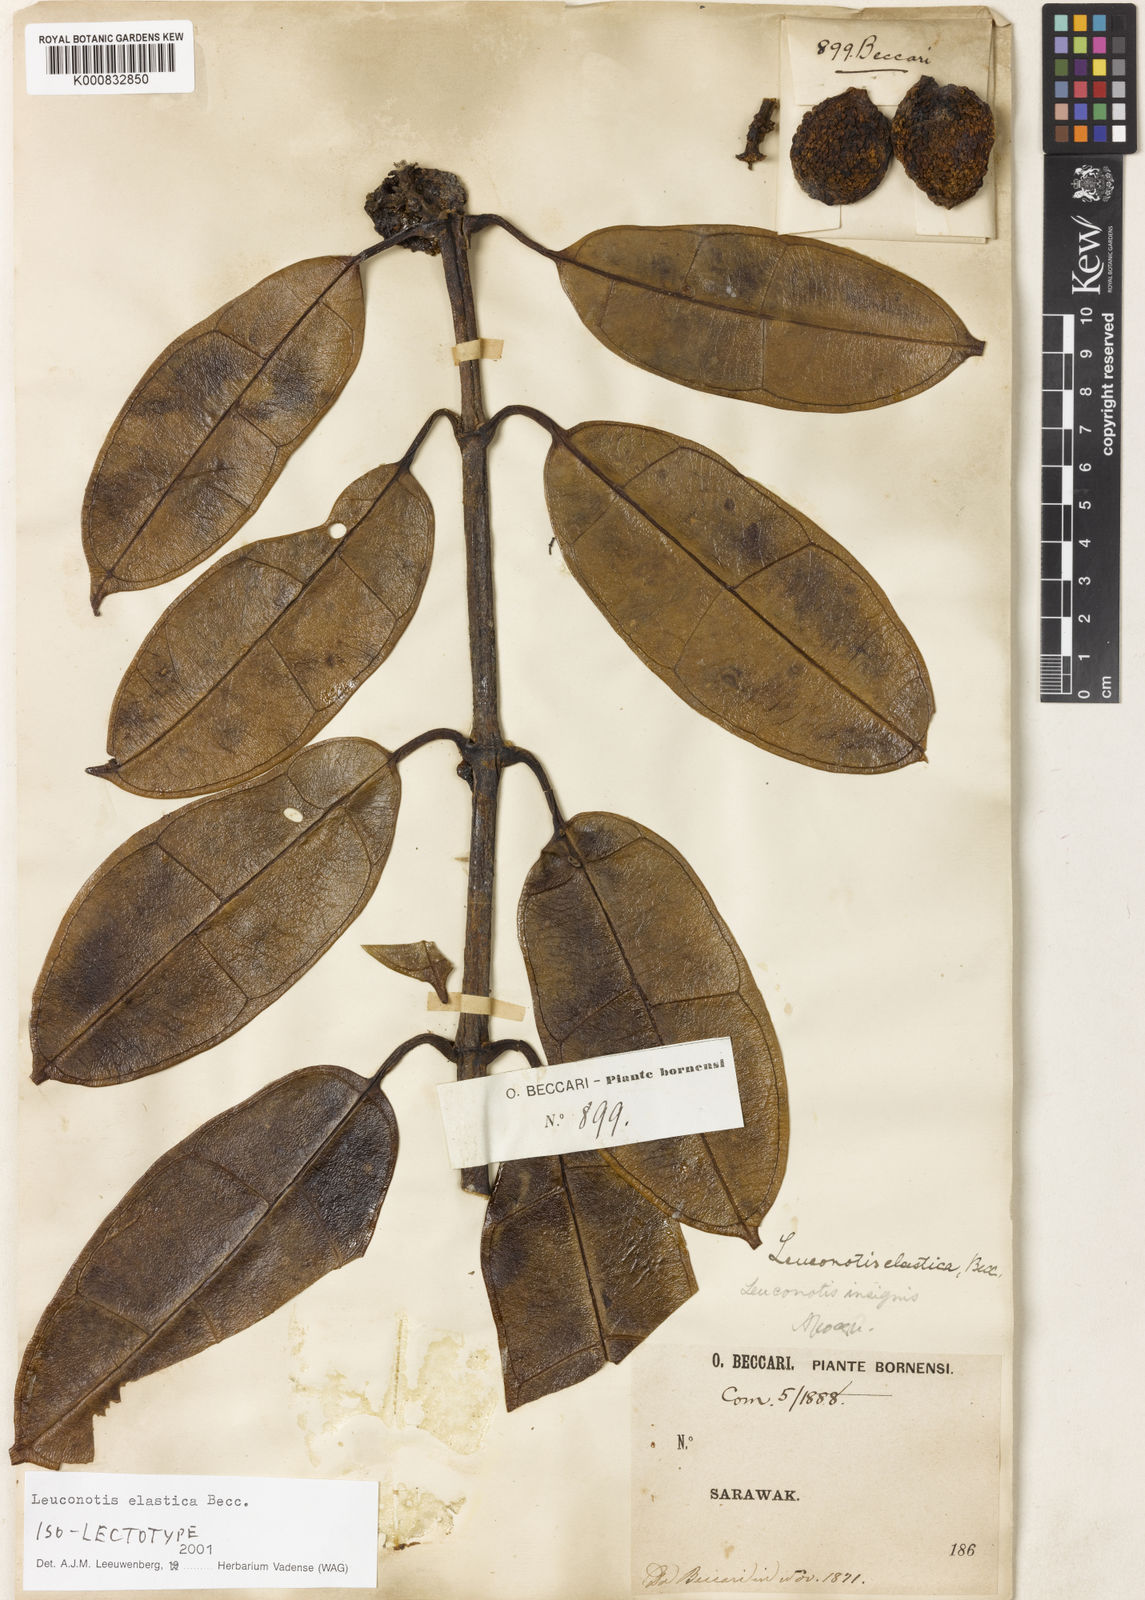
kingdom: Plantae
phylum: Tracheophyta
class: Magnoliopsida
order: Gentianales
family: Apocynaceae
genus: Leuconotis
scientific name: Leuconotis griffithii
